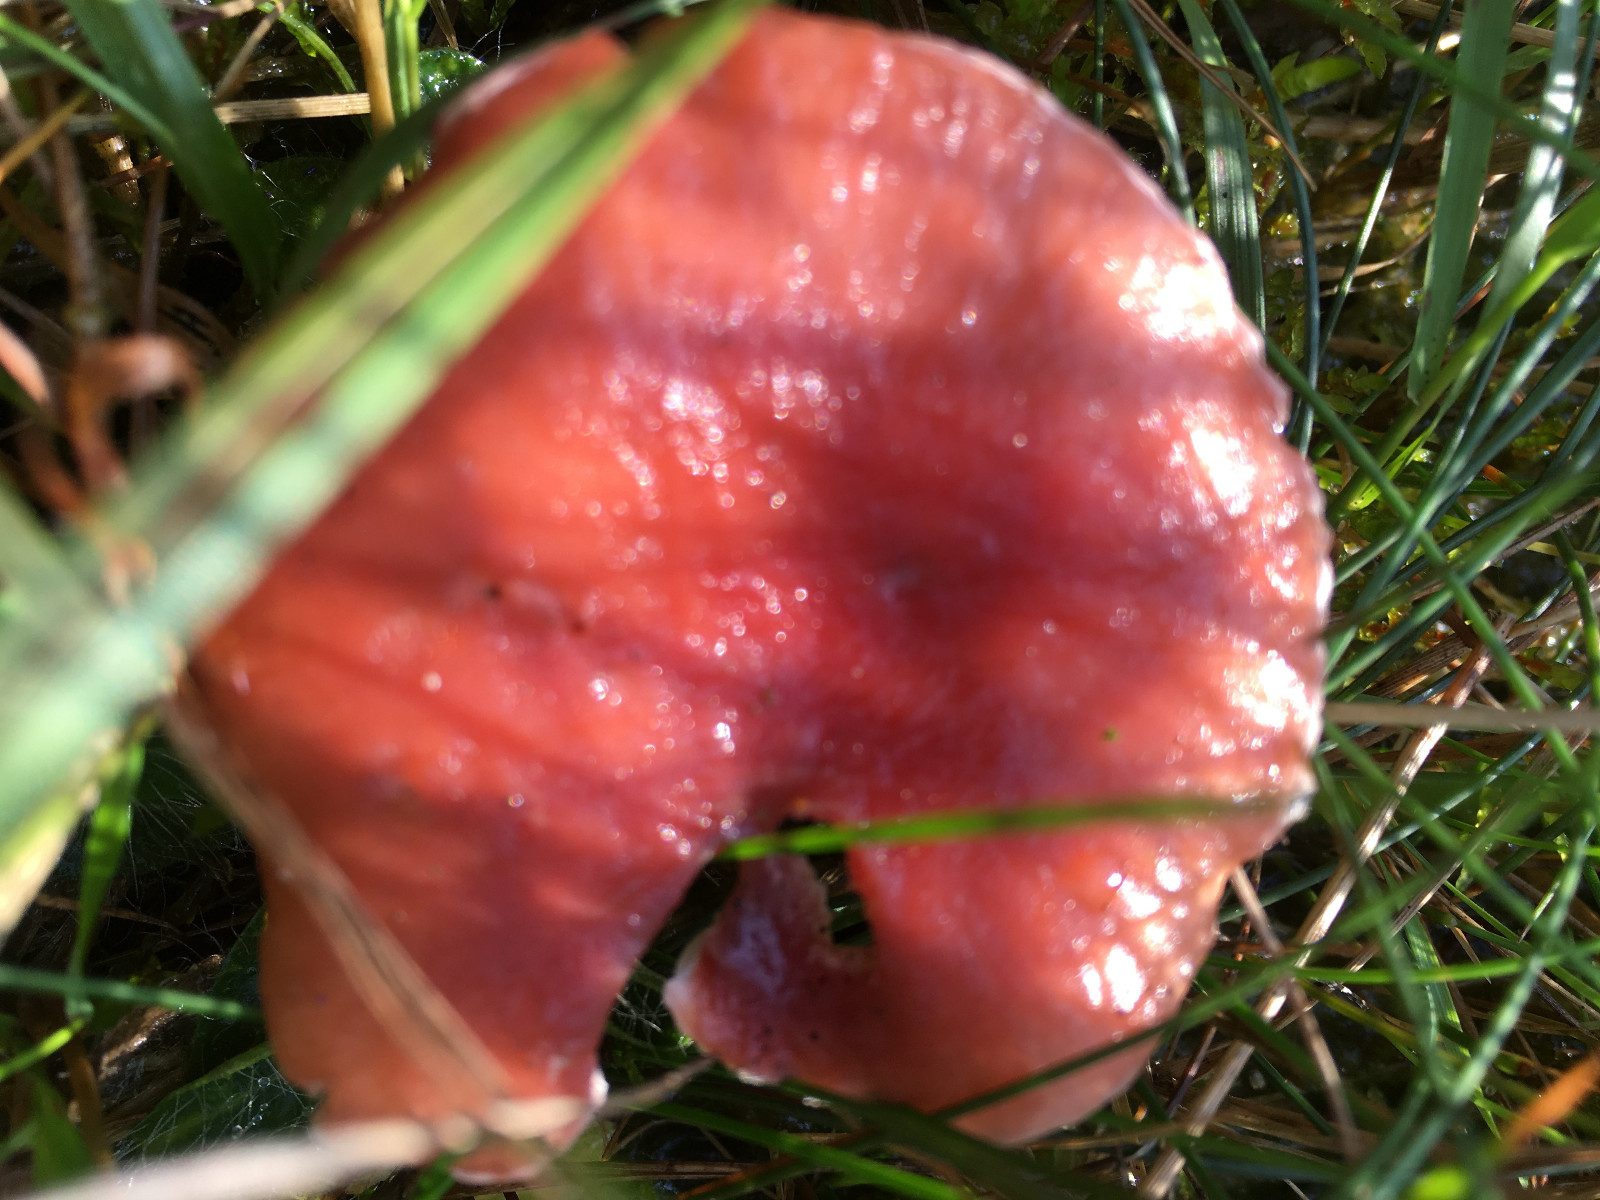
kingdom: Fungi
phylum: Basidiomycota
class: Agaricomycetes
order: Boletales
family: Gomphidiaceae
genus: Gomphidius
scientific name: Gomphidius roseus
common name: rosenrød slimslør
